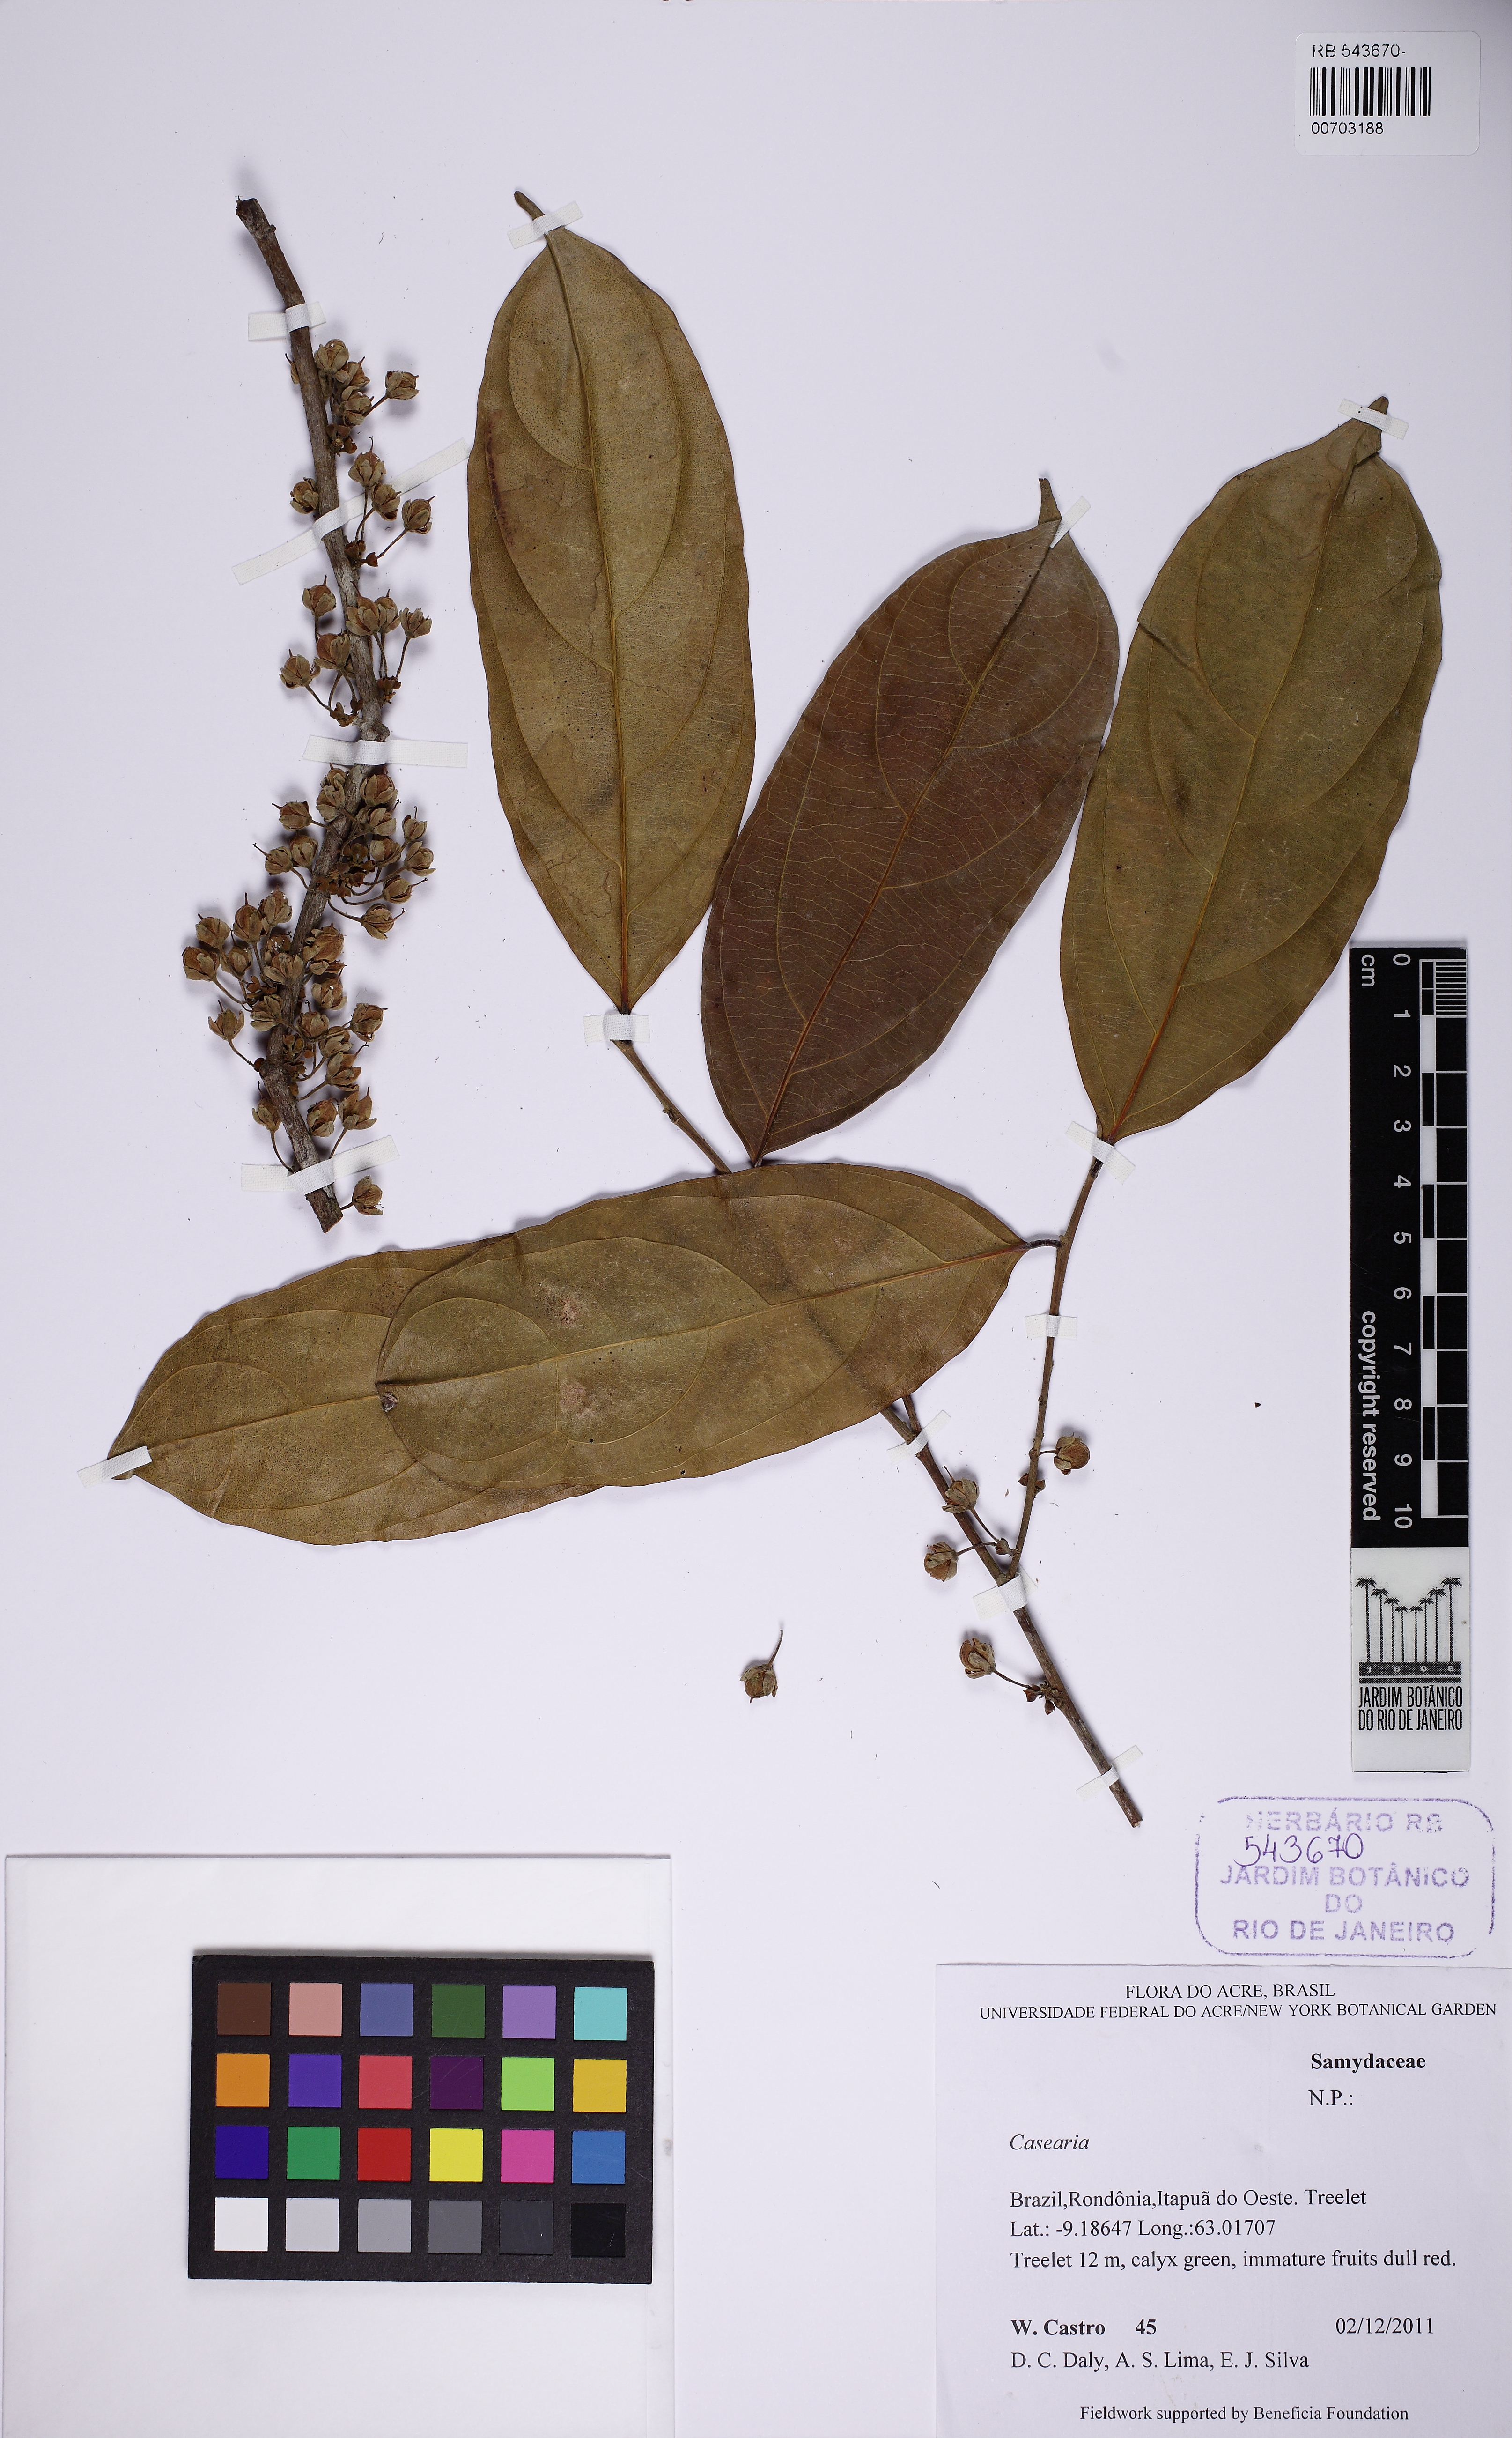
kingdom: Plantae
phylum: Tracheophyta
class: Magnoliopsida
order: Malpighiales
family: Salicaceae
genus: Irenodendron
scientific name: Irenodendron cupulatum
